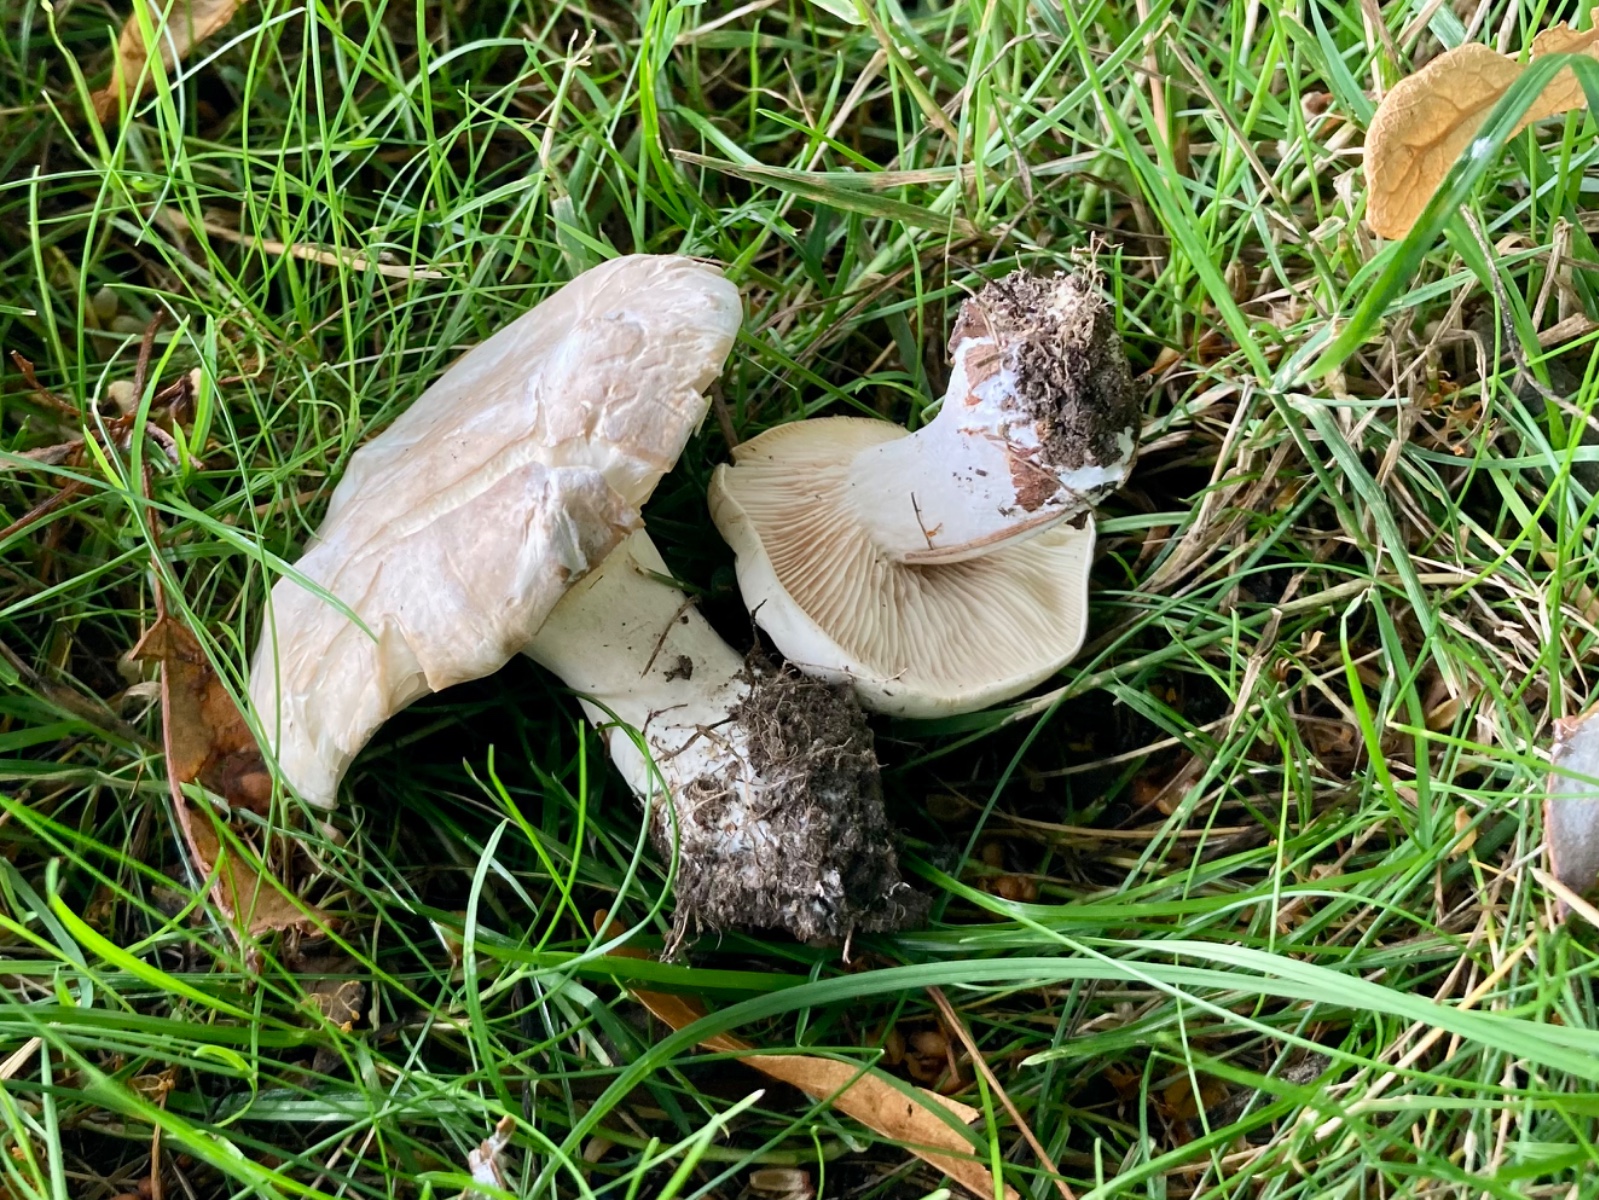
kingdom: Fungi
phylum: Basidiomycota
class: Agaricomycetes
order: Agaricales
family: Entolomataceae
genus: Clitopilus
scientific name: Clitopilus prunulus
